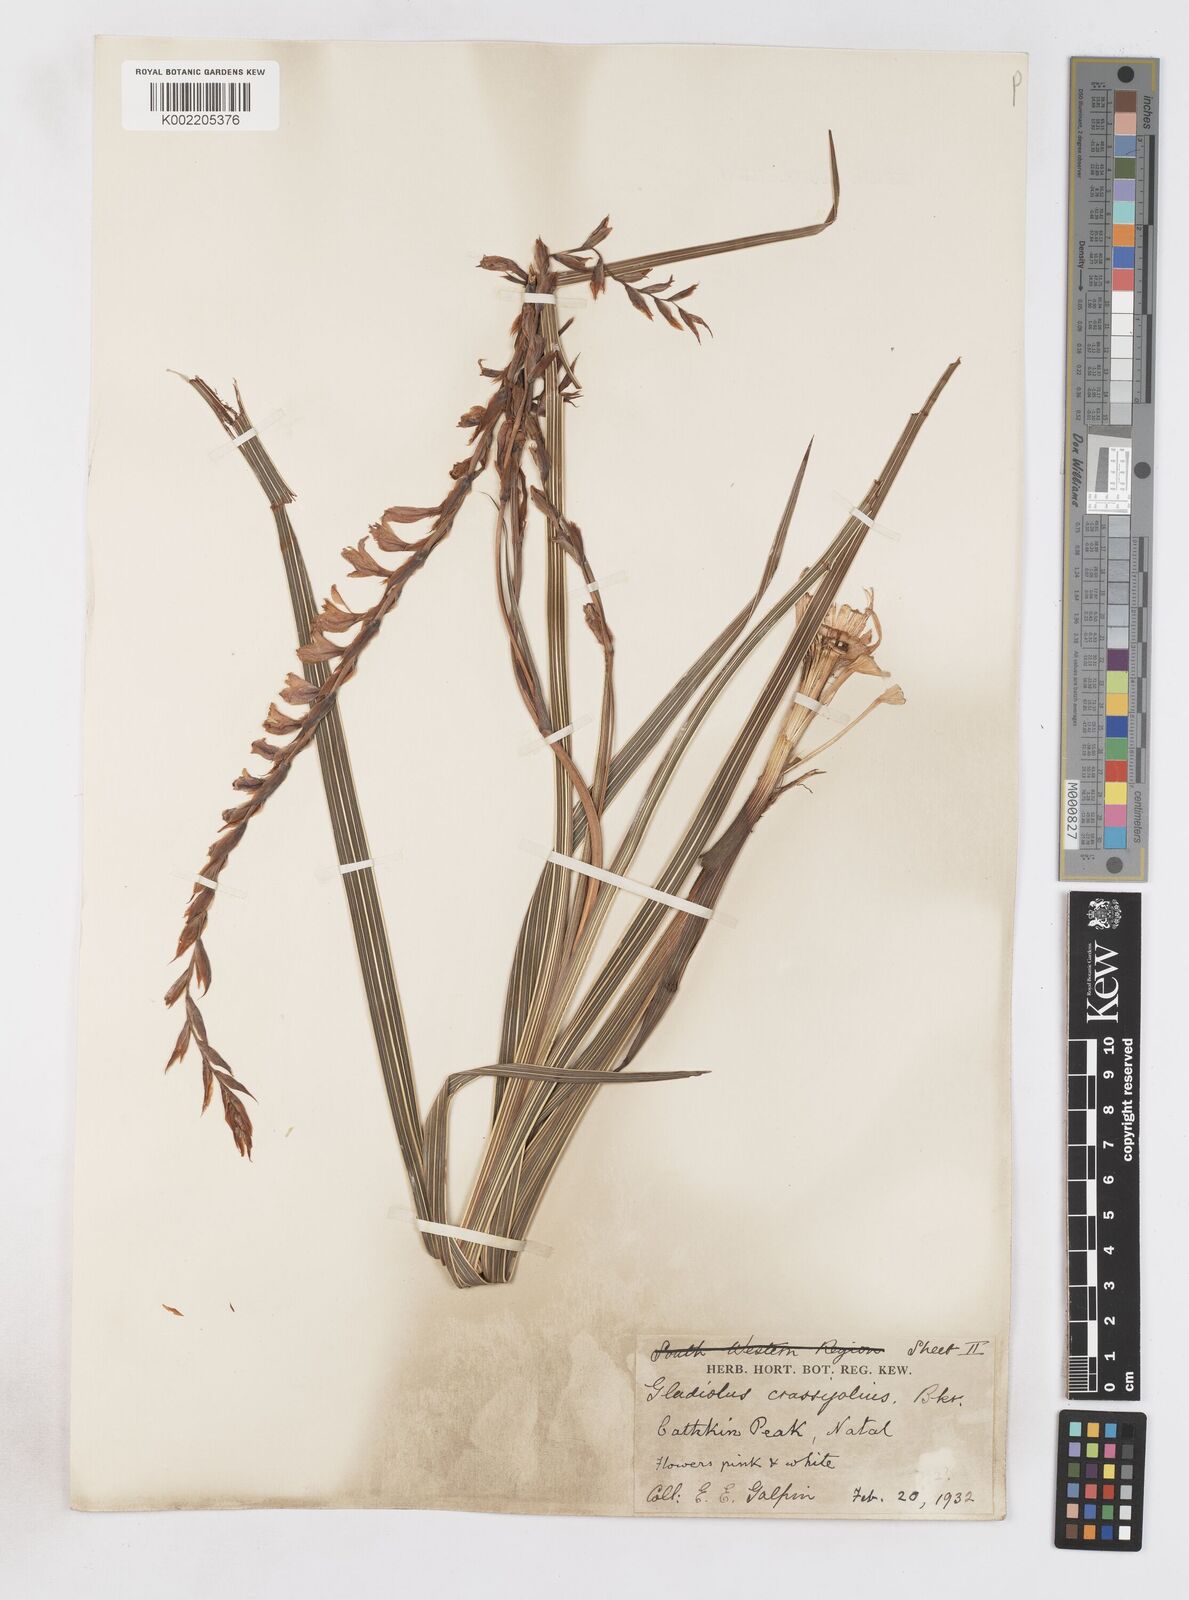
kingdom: Plantae
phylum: Tracheophyta
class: Liliopsida
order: Asparagales
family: Iridaceae
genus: Gladiolus
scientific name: Gladiolus crassifolius
